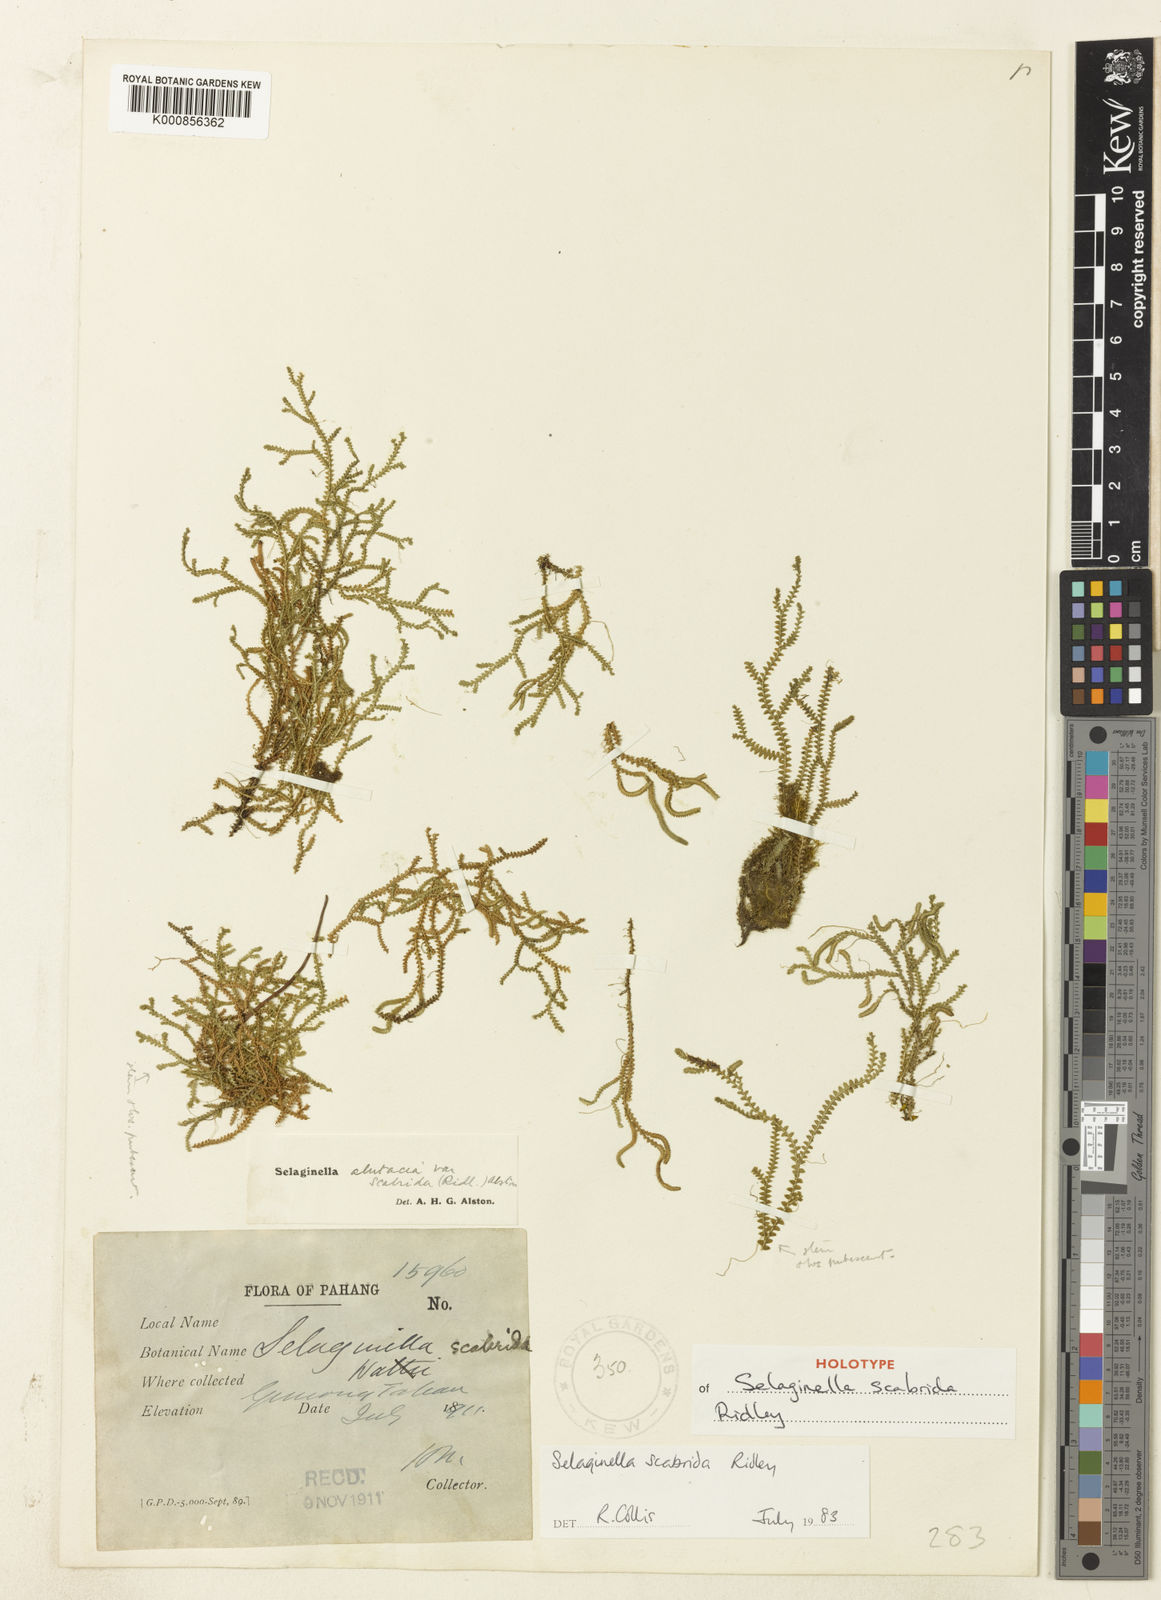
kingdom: Plantae
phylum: Tracheophyta
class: Lycopodiopsida
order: Selaginellales
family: Selaginellaceae
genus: Selaginella
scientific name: Selaginella
